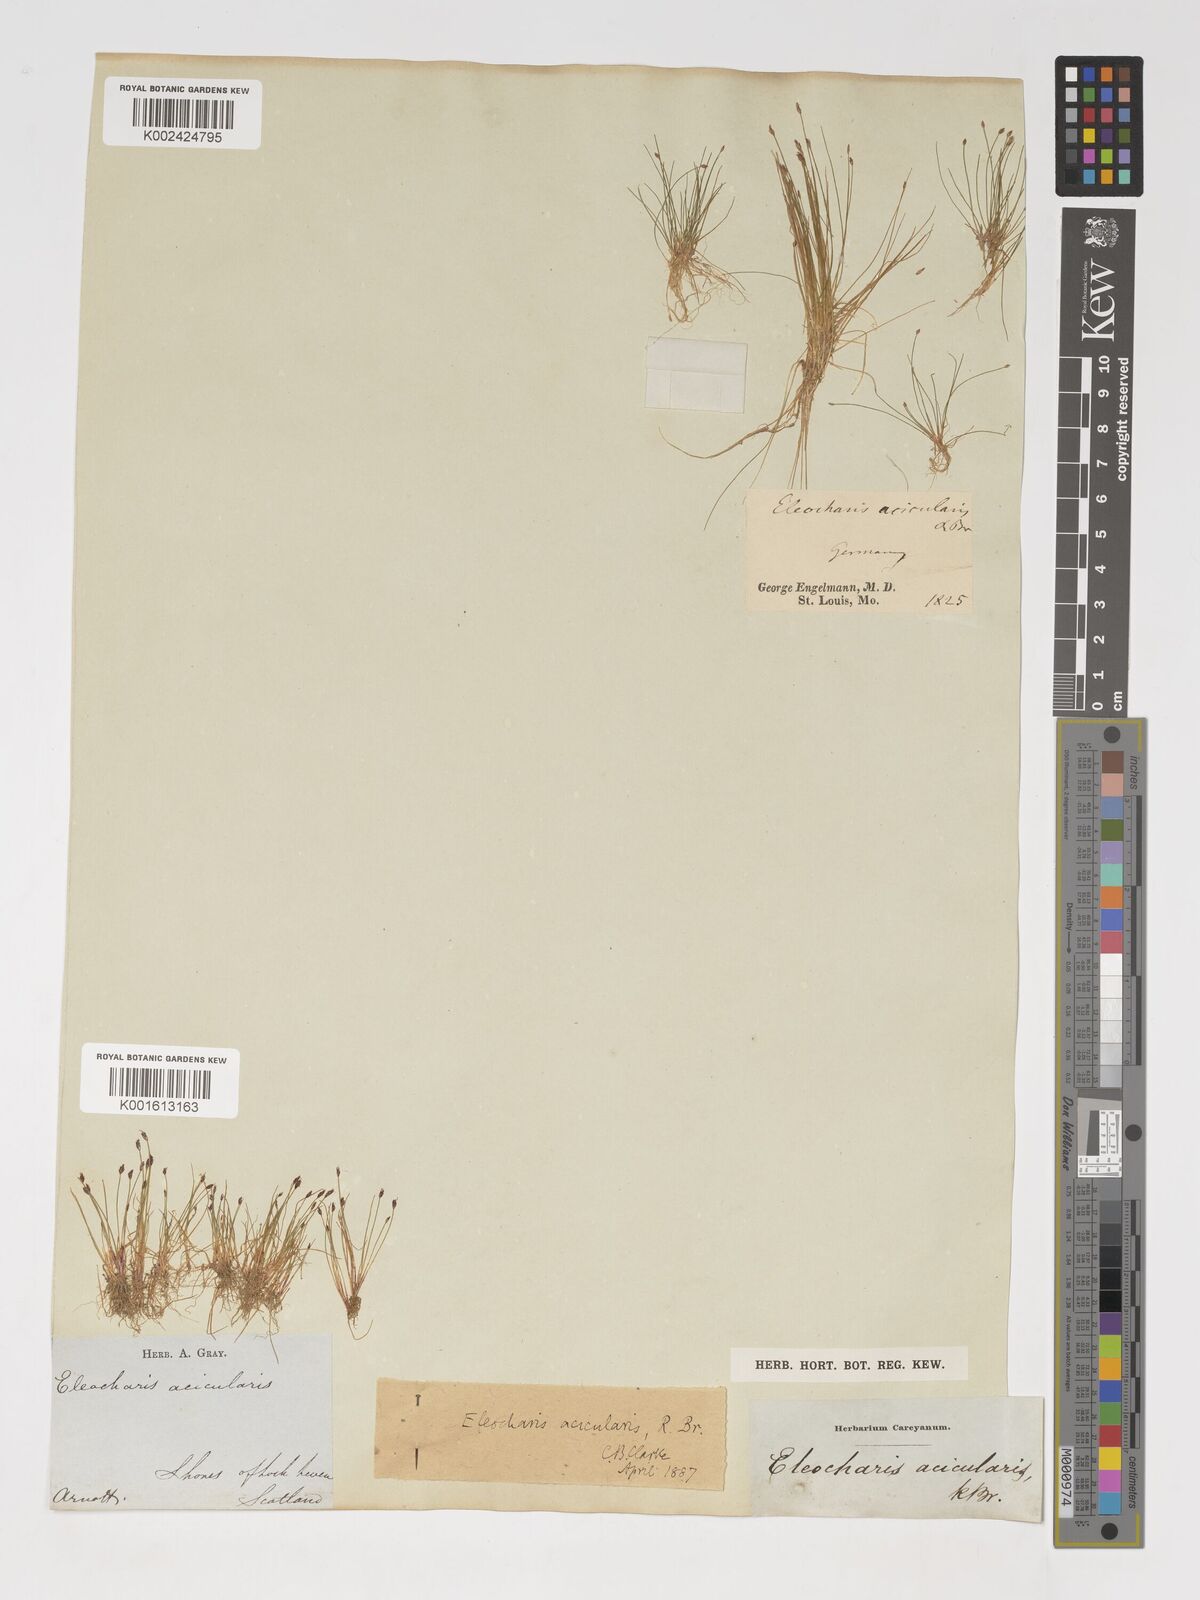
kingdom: Plantae
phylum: Tracheophyta
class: Liliopsida
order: Poales
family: Cyperaceae
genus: Eleocharis
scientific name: Eleocharis acicularis
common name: Needle spike-rush
